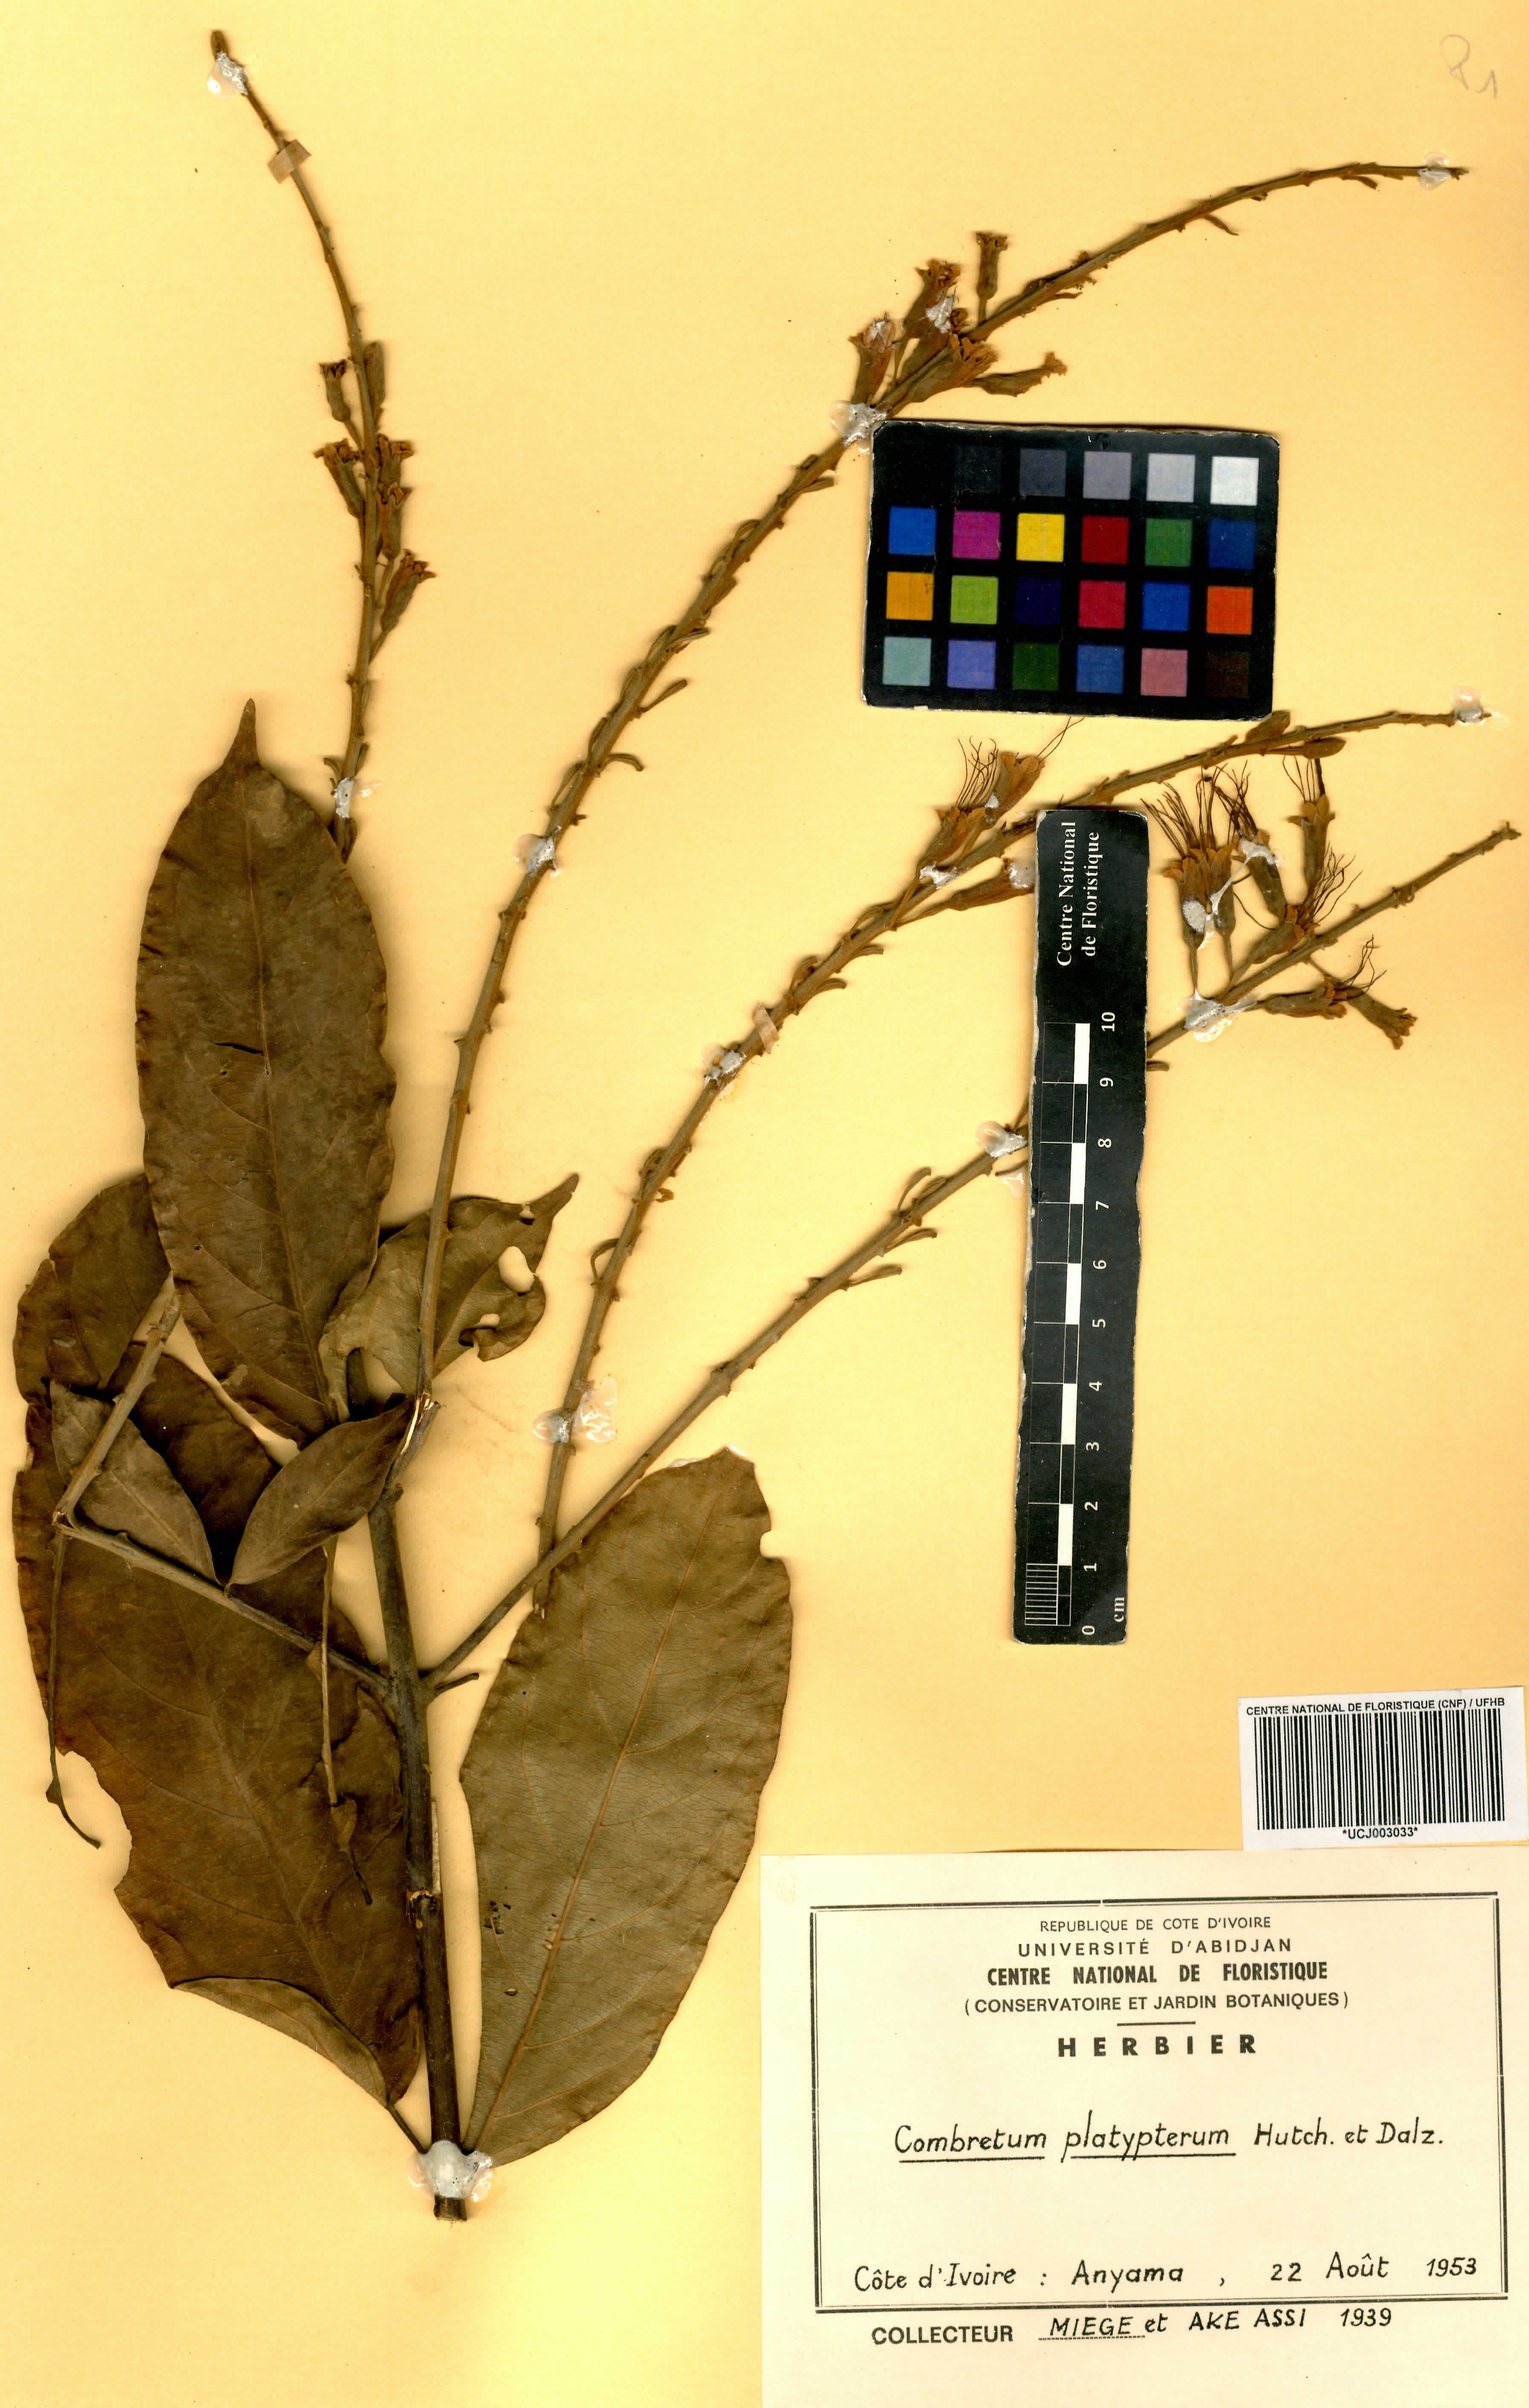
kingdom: Plantae
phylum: Tracheophyta
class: Magnoliopsida
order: Myrtales
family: Combretaceae
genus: Combretum
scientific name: Combretum platypterum
